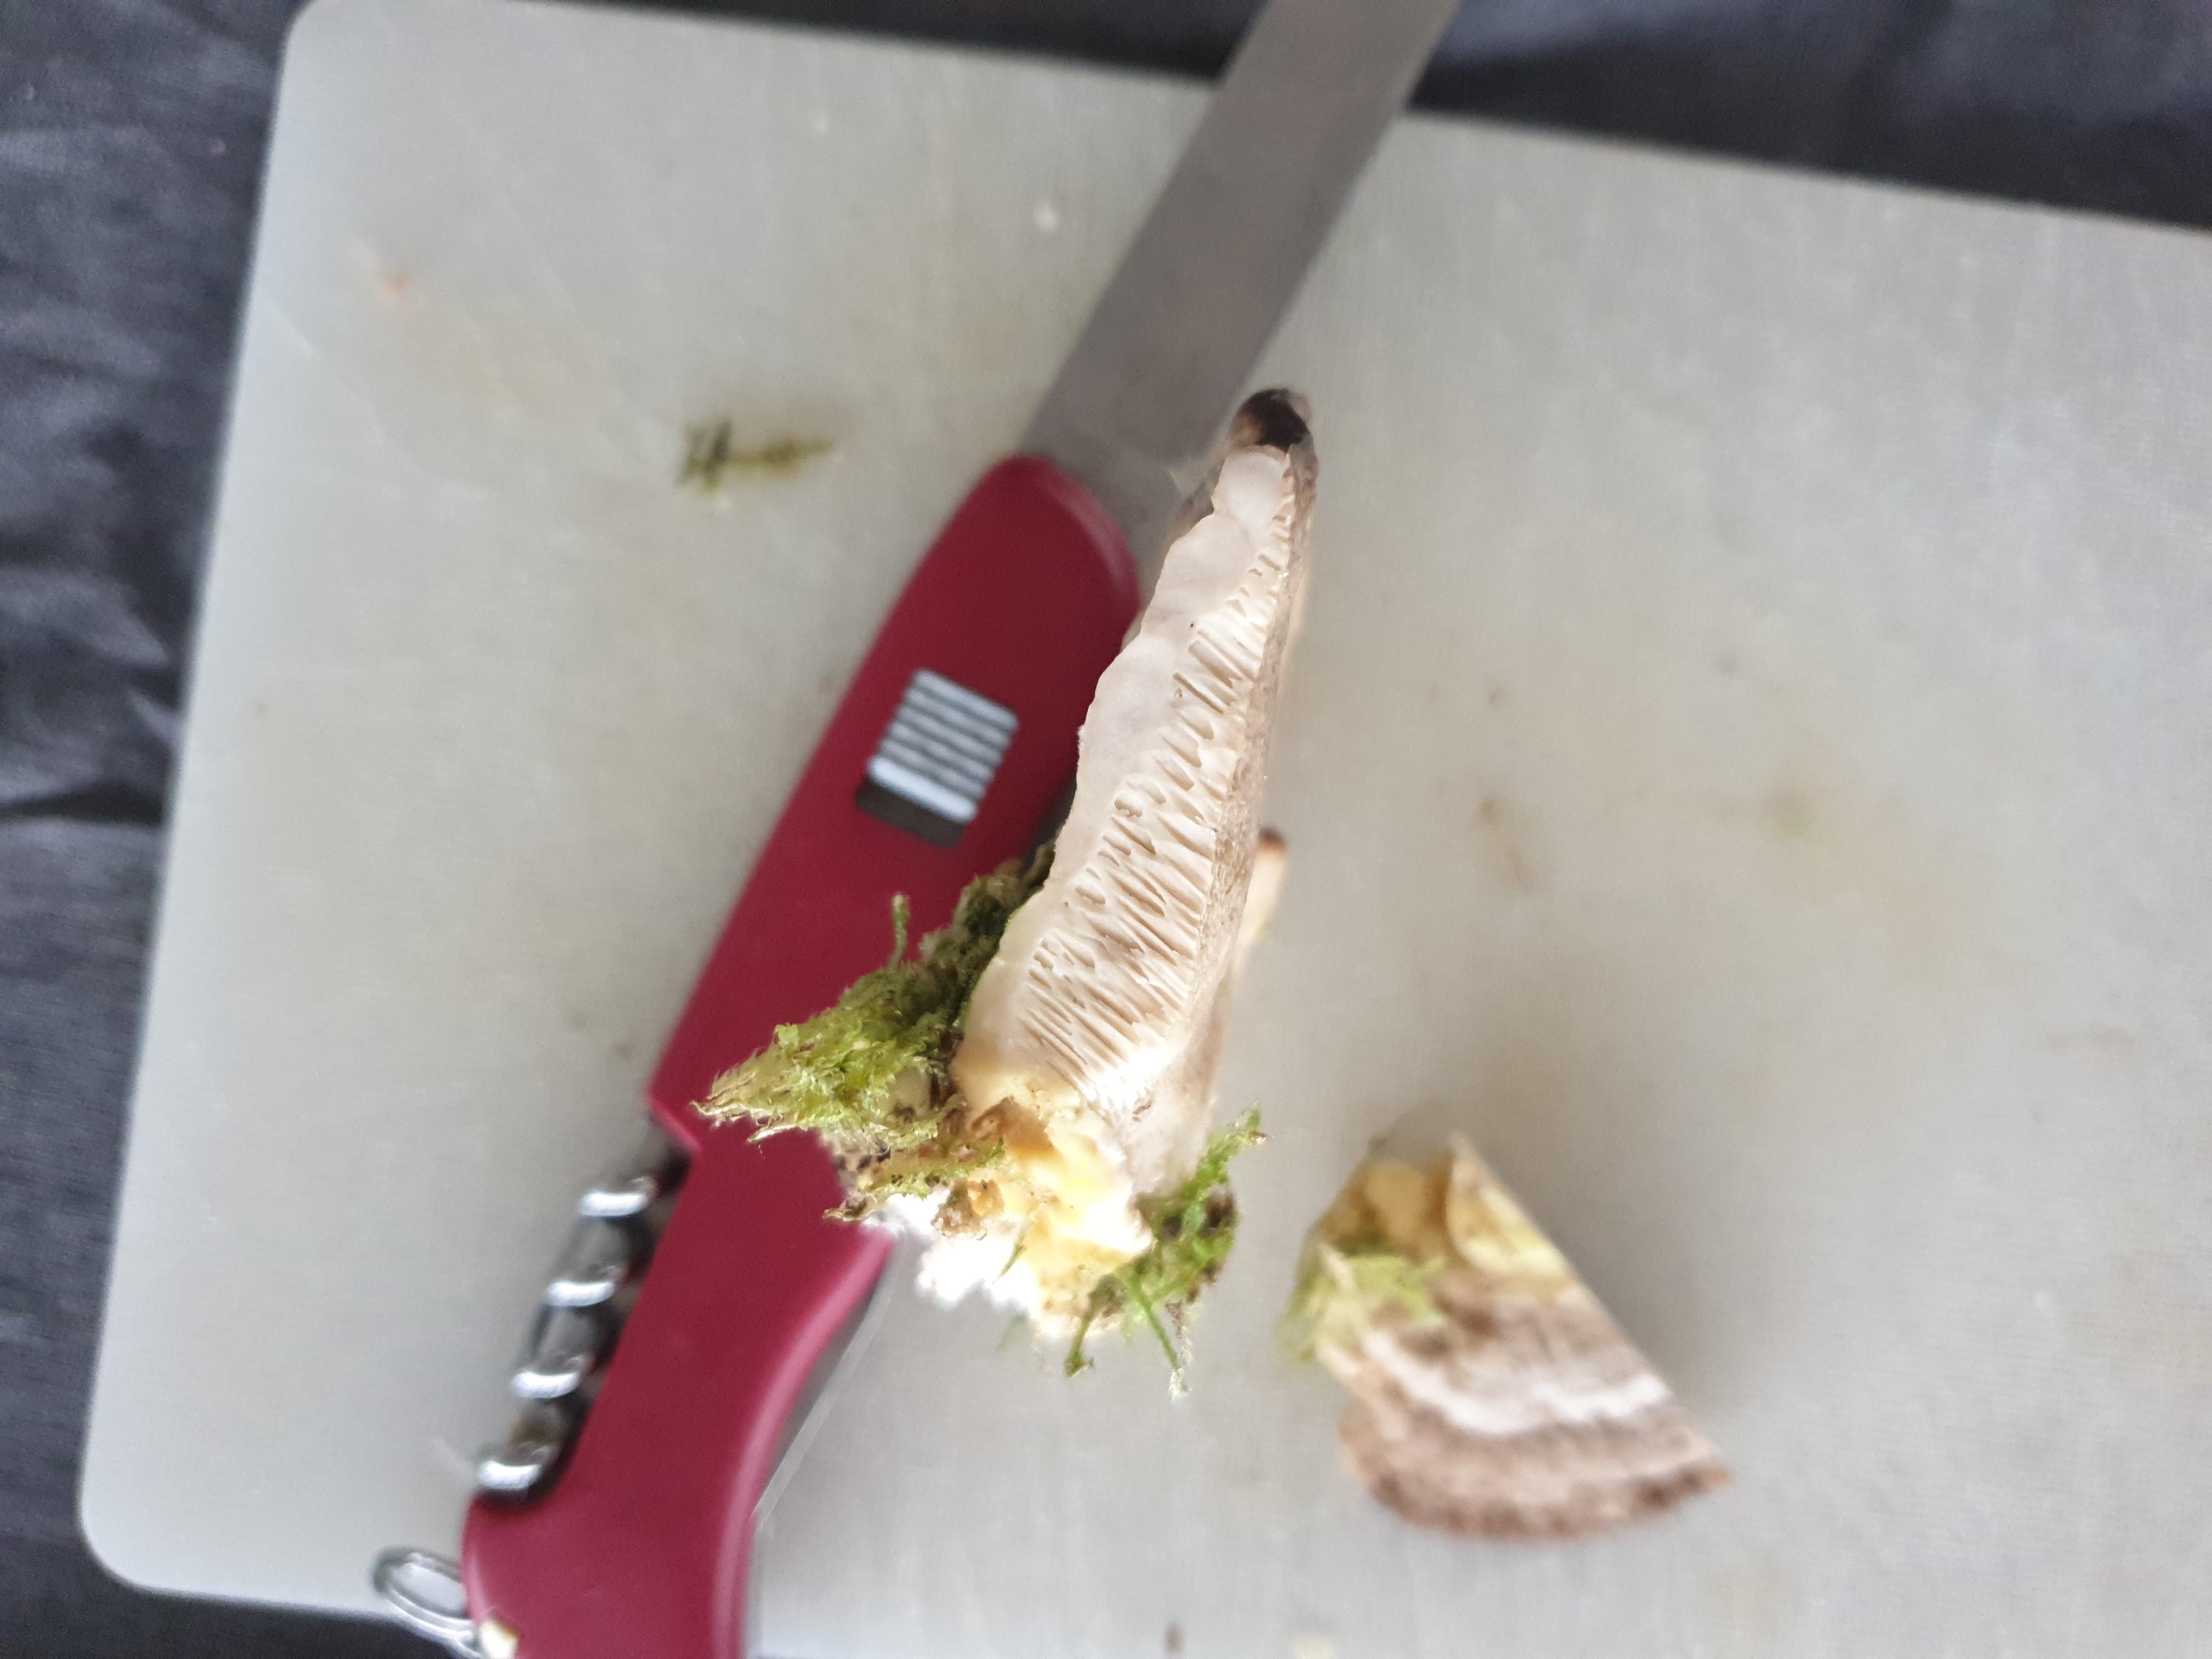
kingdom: Fungi
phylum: Basidiomycota
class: Agaricomycetes
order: Polyporales
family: Polyporaceae
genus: Trametes
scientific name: Trametes gibbosa
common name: puklet læderporesvamp
